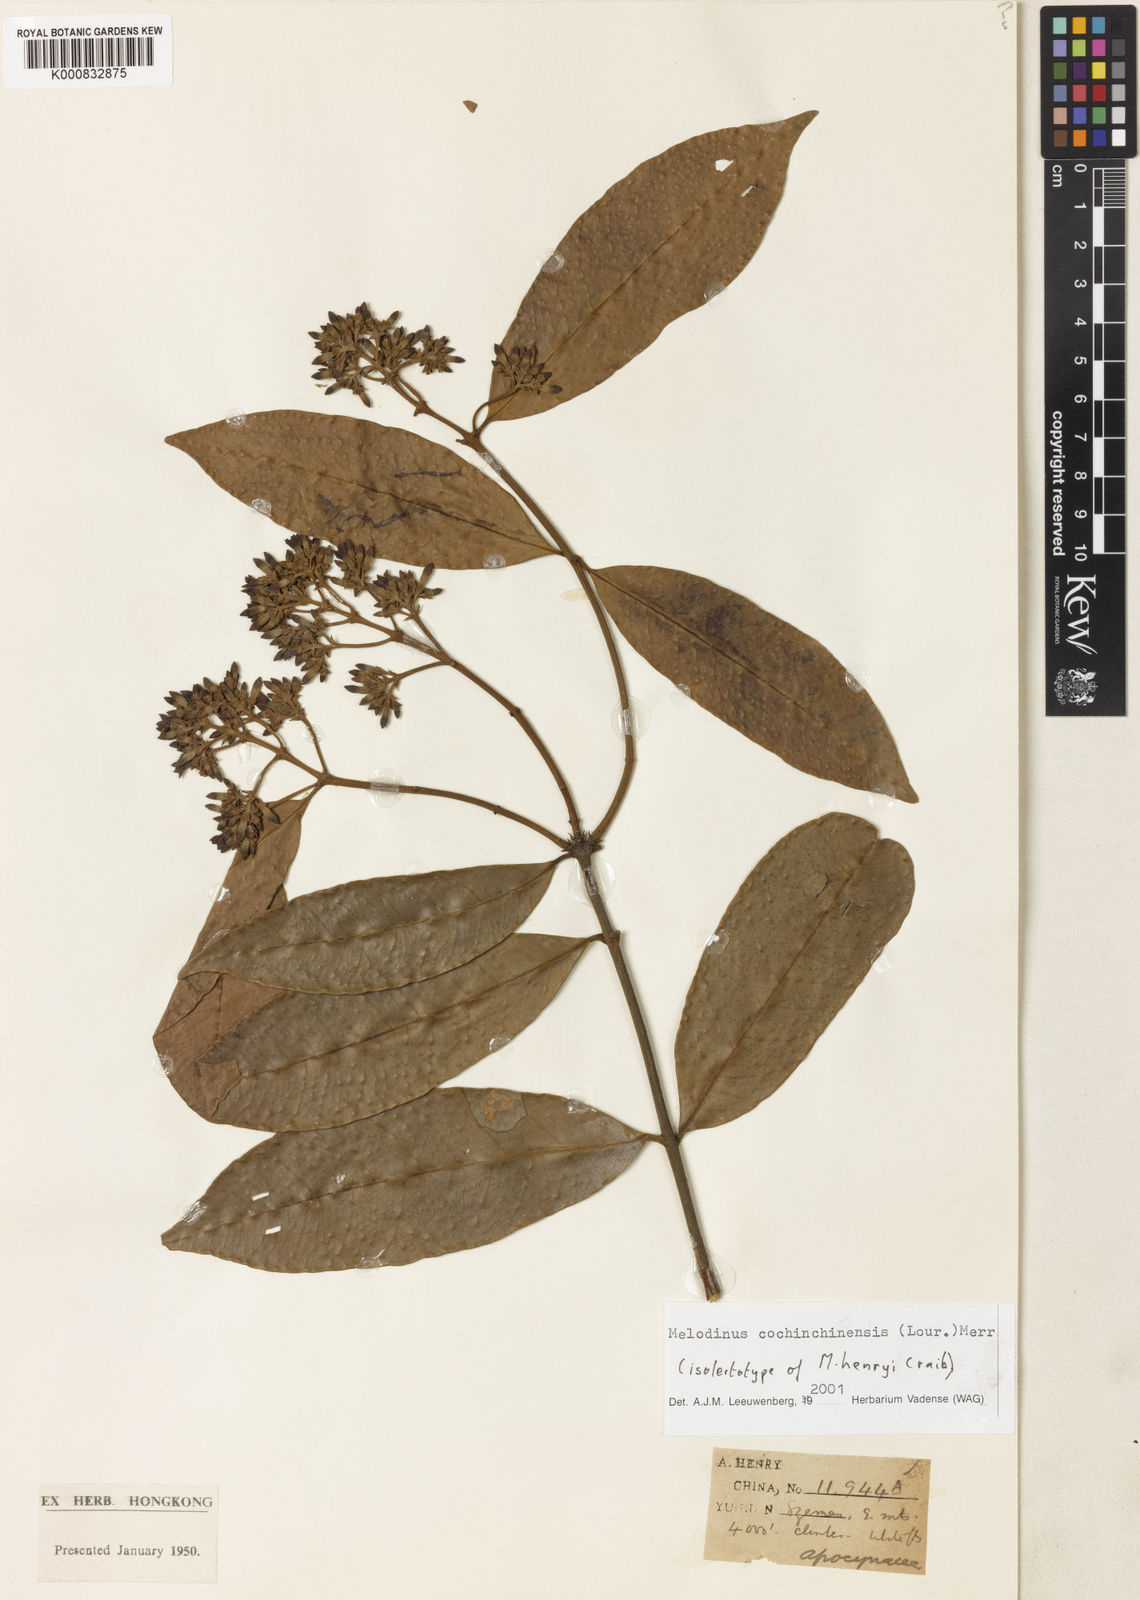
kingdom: Plantae
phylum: Tracheophyta
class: Magnoliopsida
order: Gentianales
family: Apocynaceae
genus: Melodinus
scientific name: Melodinus cochinchinensis
